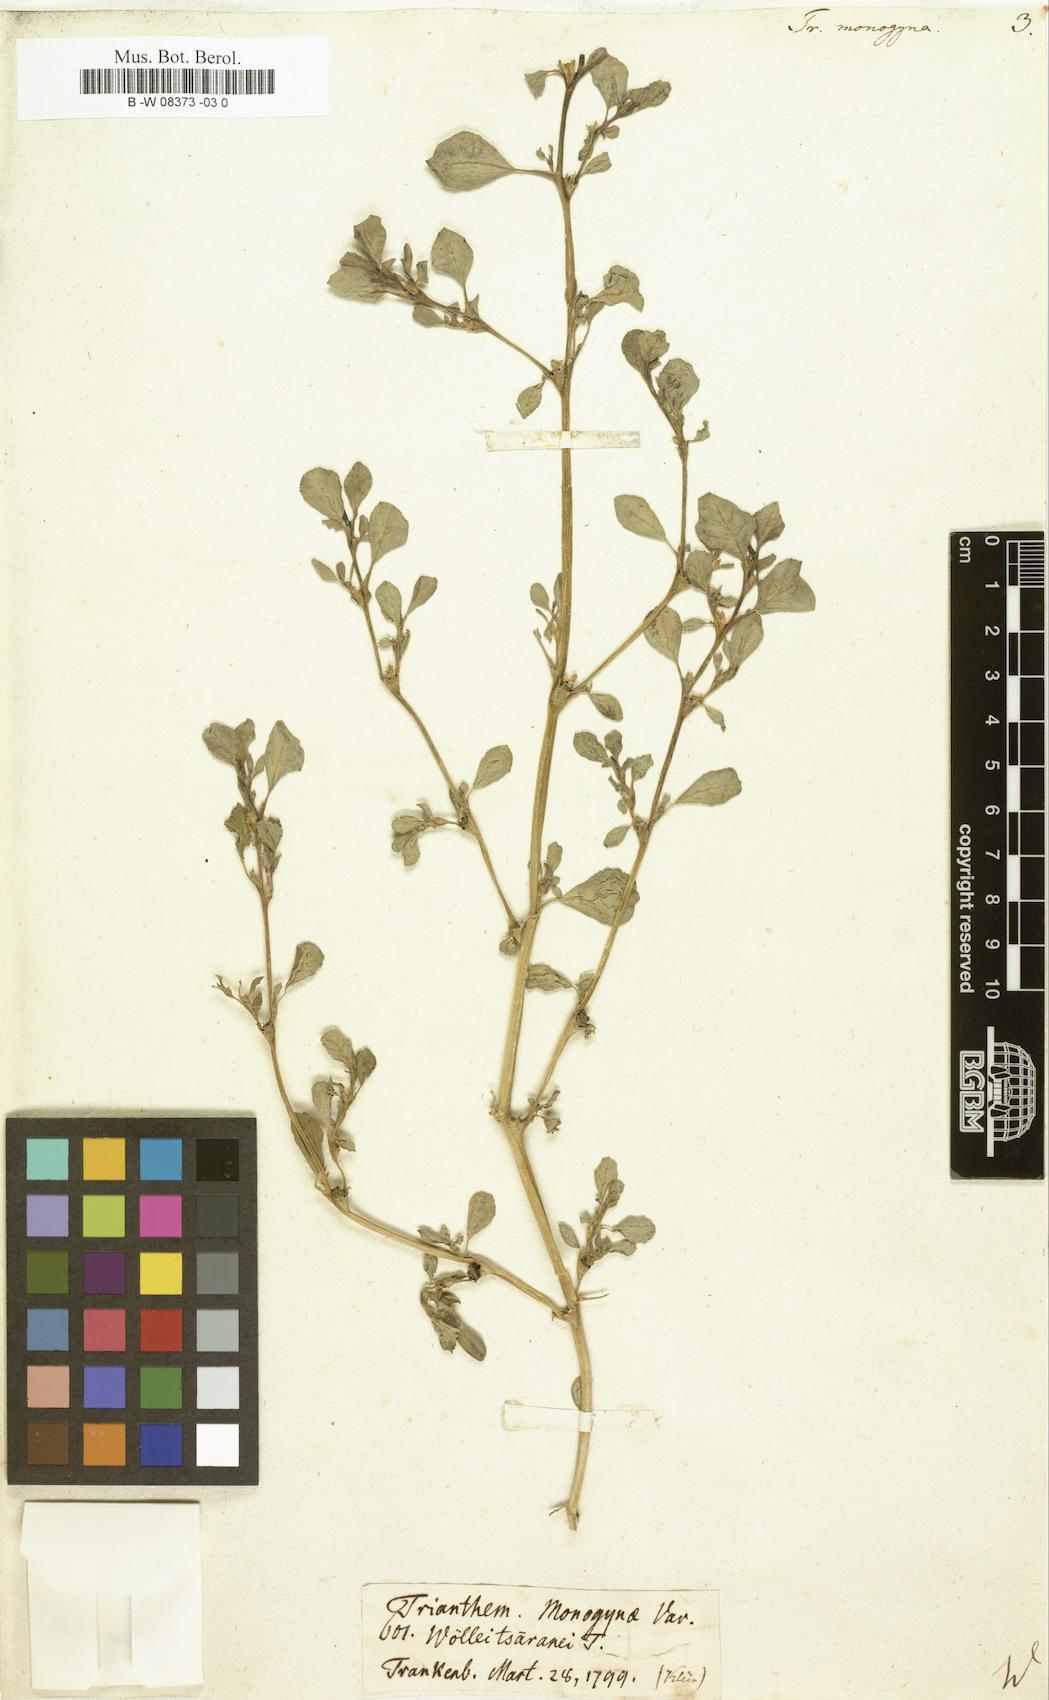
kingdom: Plantae
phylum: Tracheophyta
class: Magnoliopsida
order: Caryophyllales
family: Aizoaceae
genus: Trianthema
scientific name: Trianthema portulacastrum
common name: Desert horsepurslane
